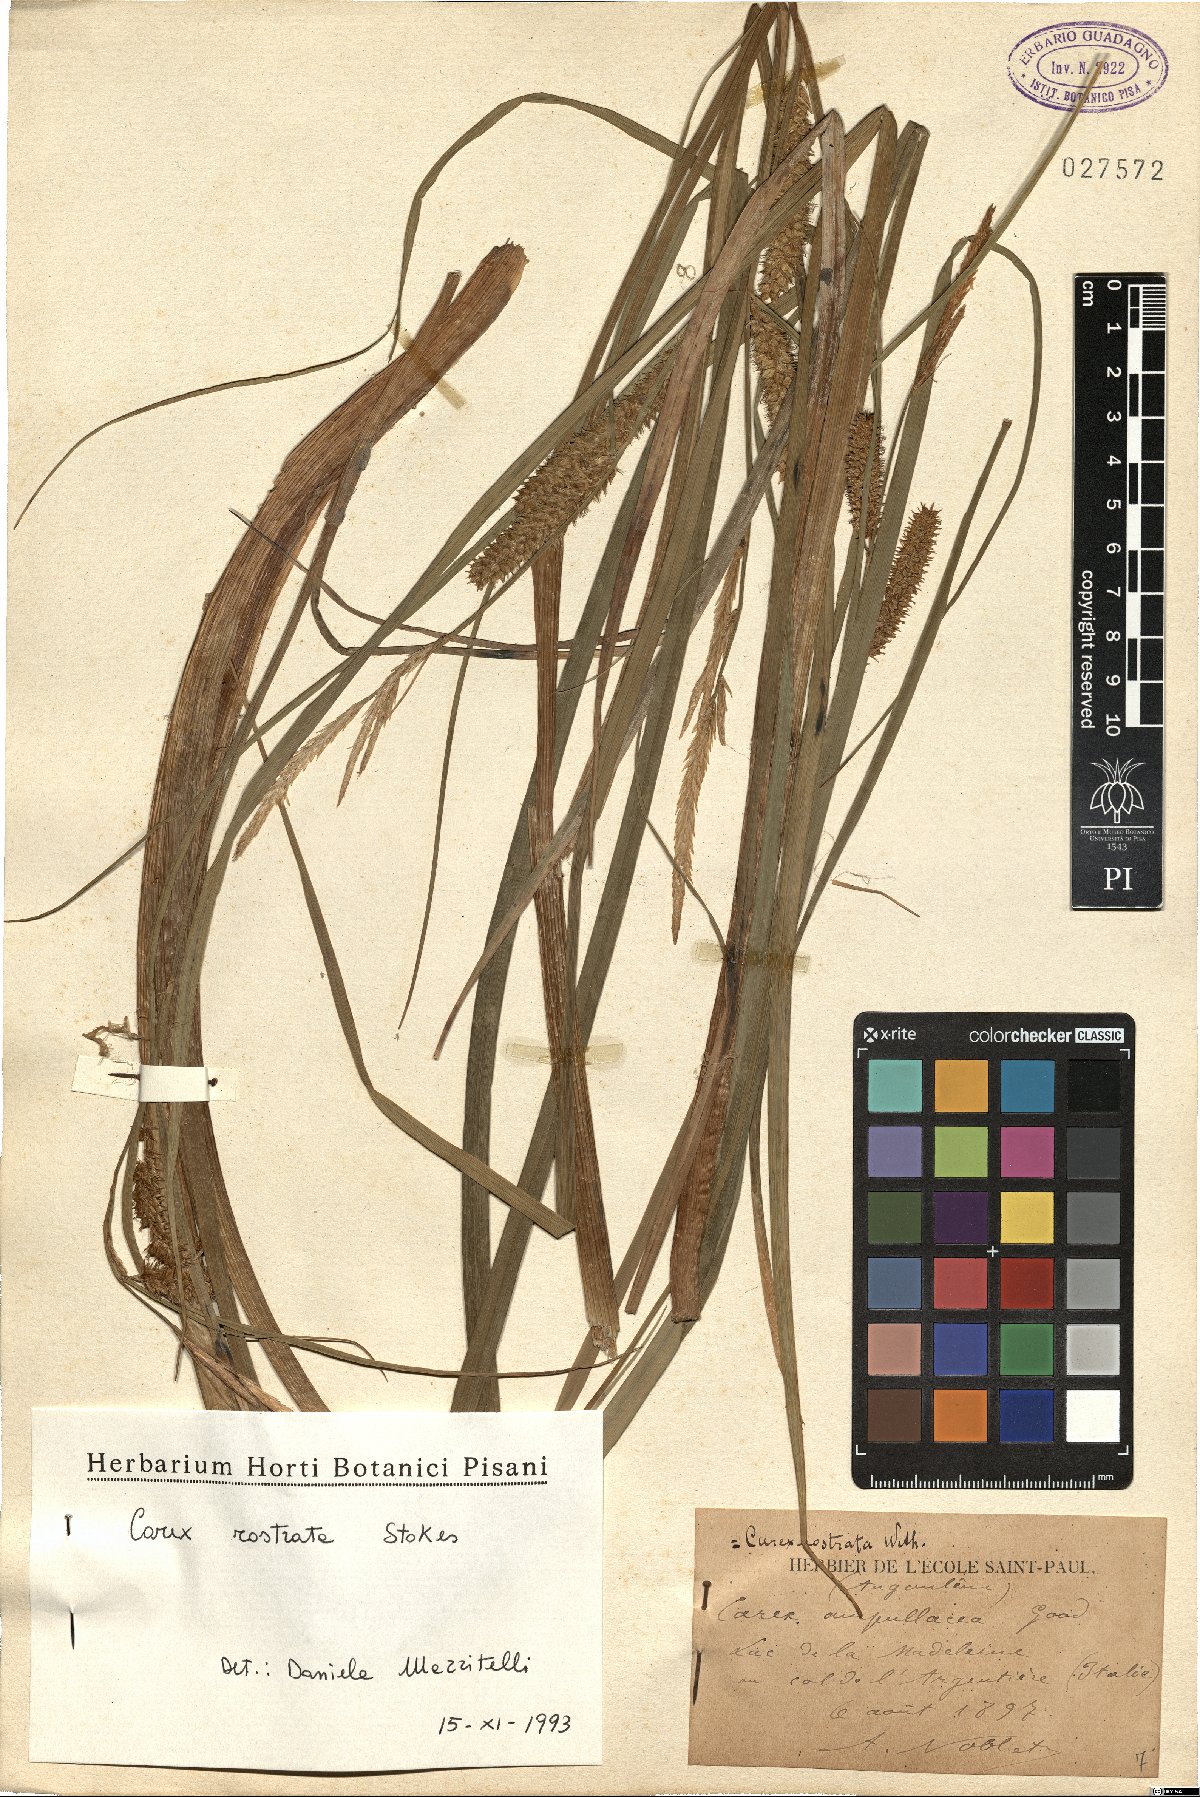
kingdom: Plantae
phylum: Tracheophyta
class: Liliopsida
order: Poales
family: Cyperaceae
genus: Carex
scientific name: Carex rostrata
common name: Bottle sedge
